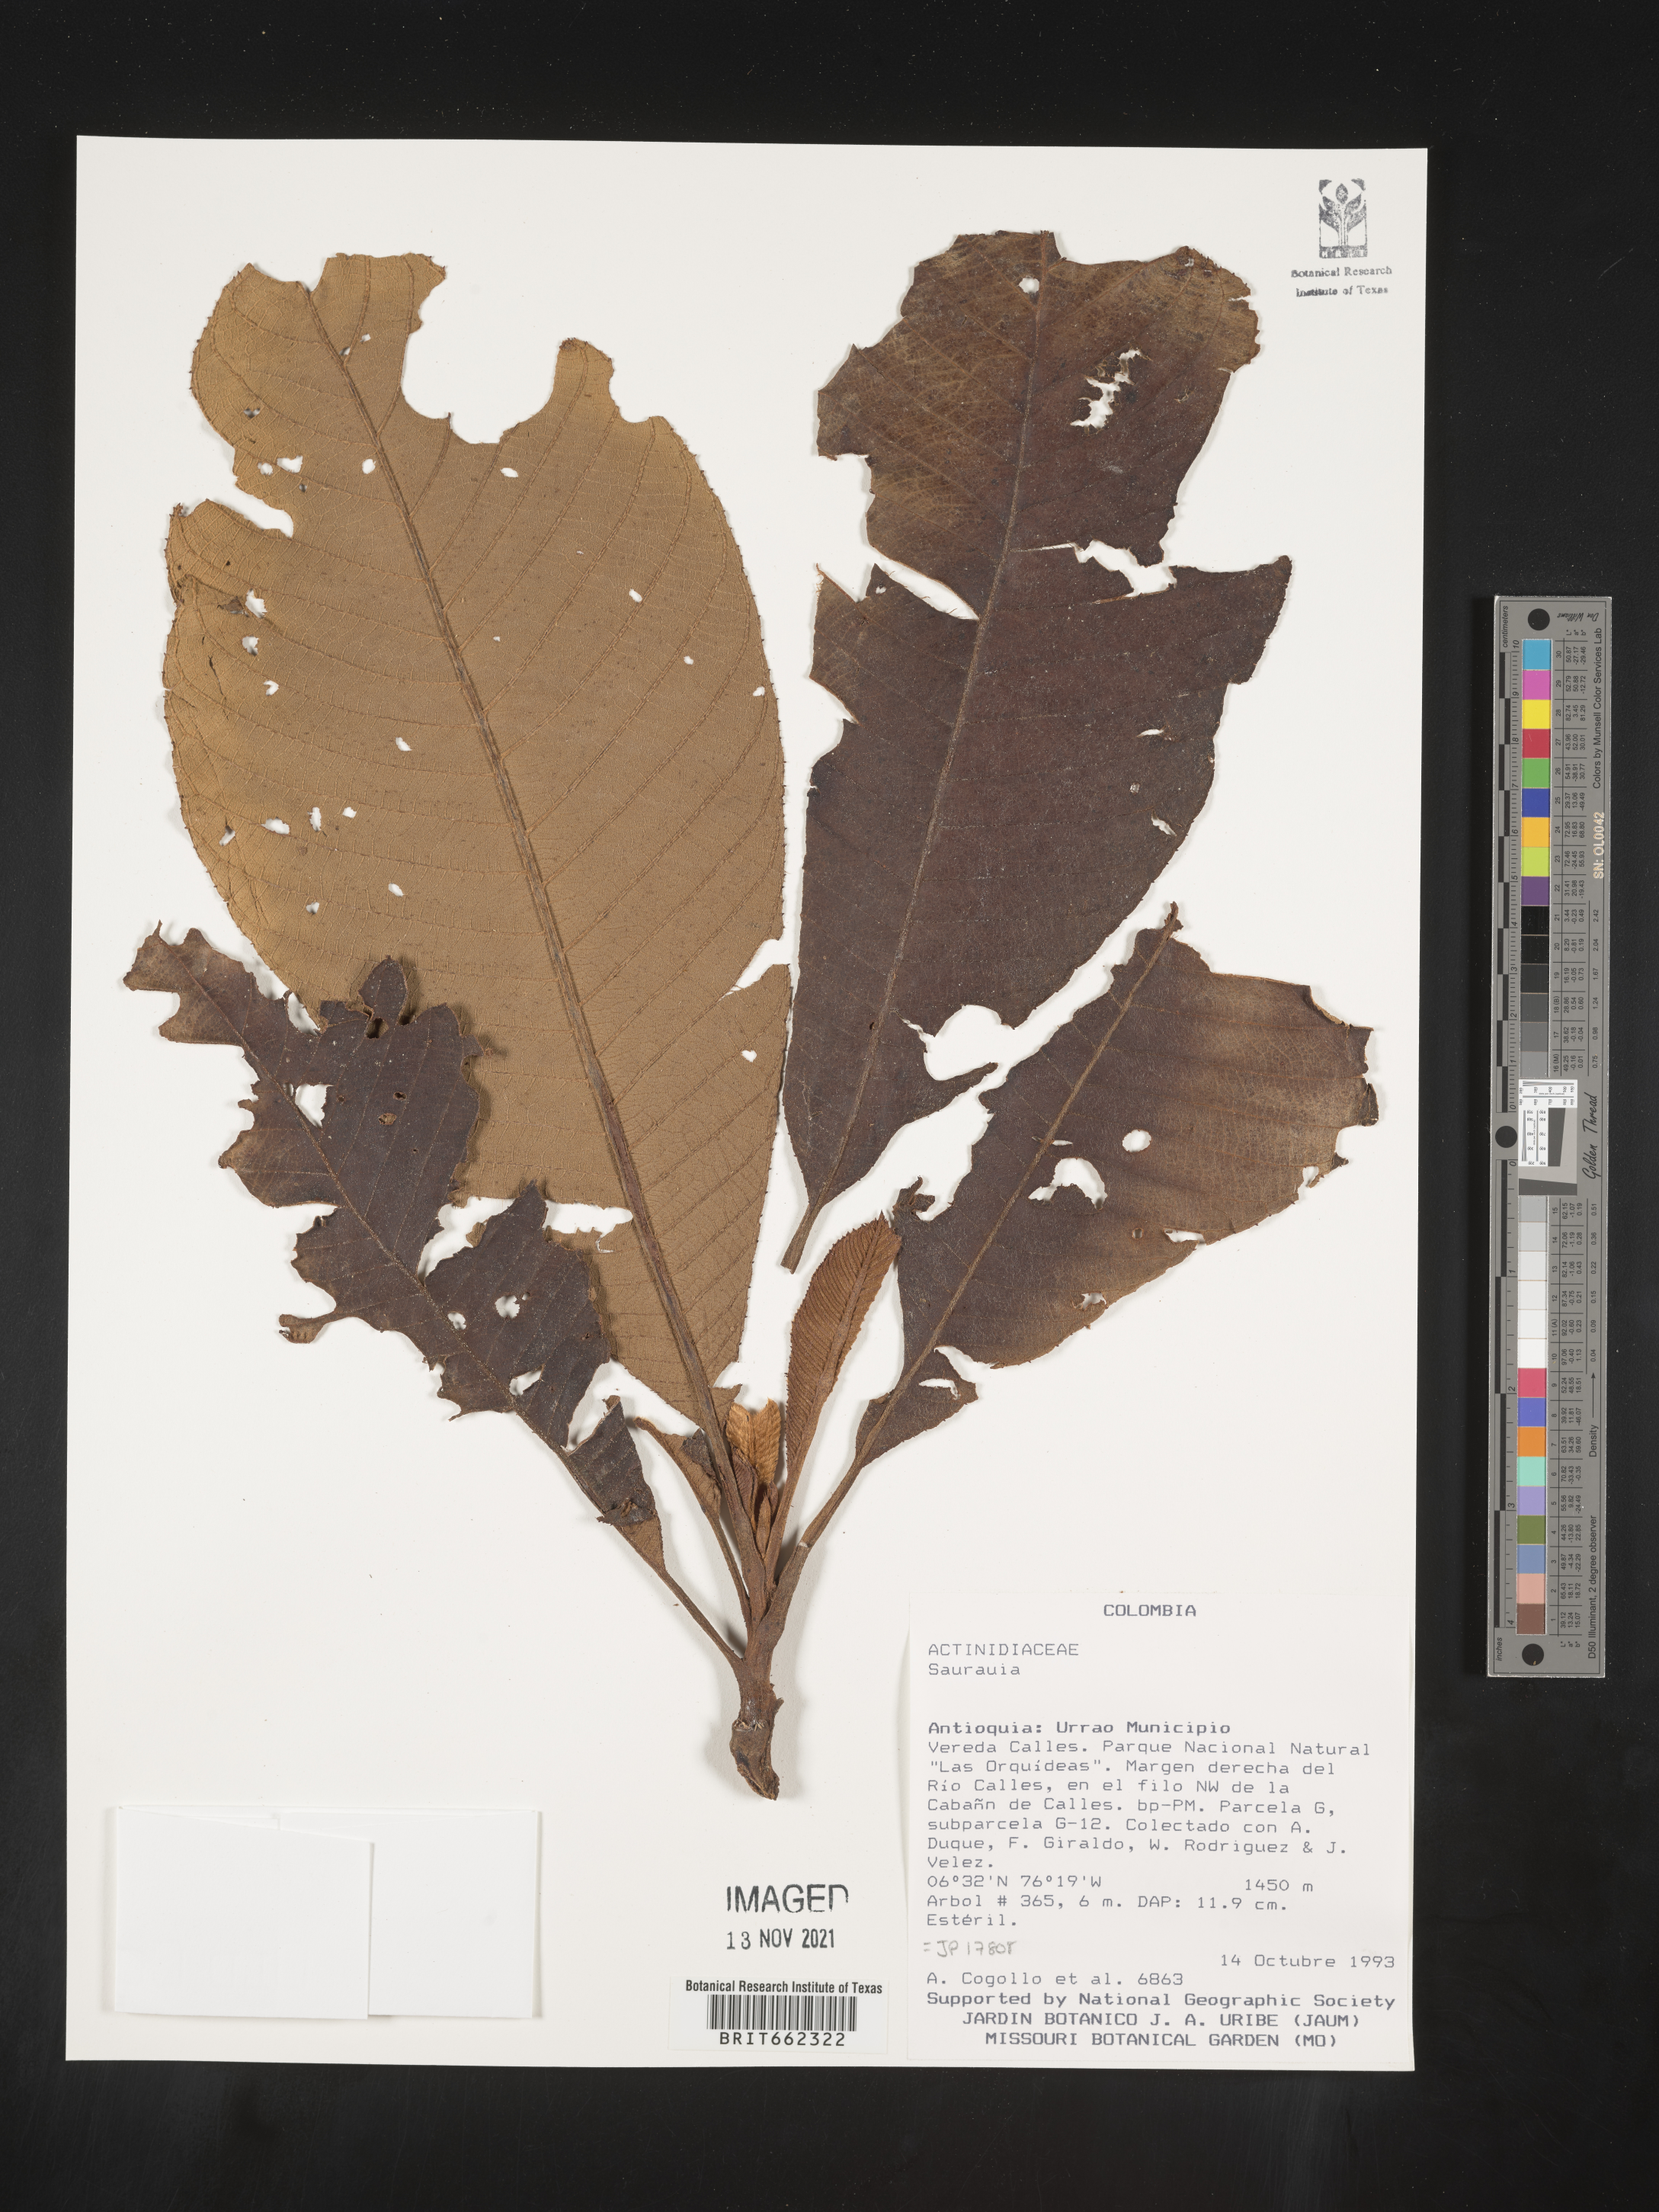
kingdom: Plantae
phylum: Tracheophyta
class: Magnoliopsida
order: Ericales
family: Actinidiaceae
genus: Saurauia
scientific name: Saurauia
